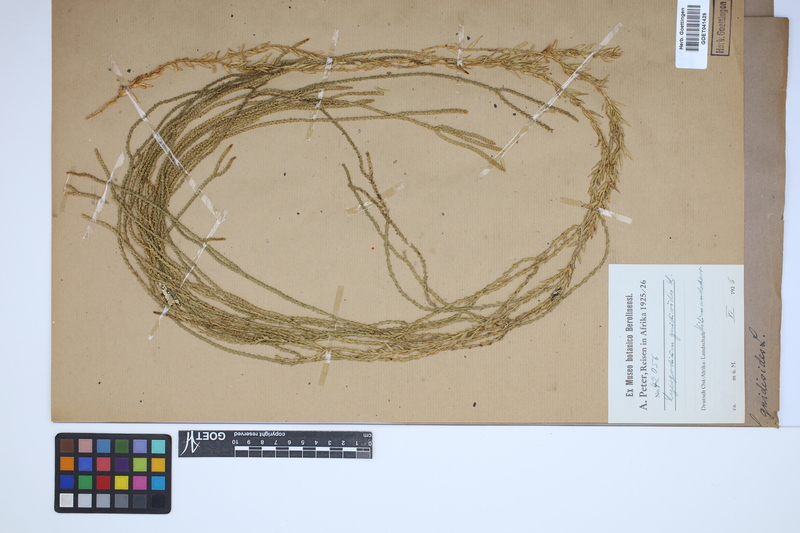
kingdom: Plantae
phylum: Tracheophyta
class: Lycopodiopsida
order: Lycopodiales
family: Lycopodiaceae
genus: Phlegmariurus
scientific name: Phlegmariurus gnidioides
